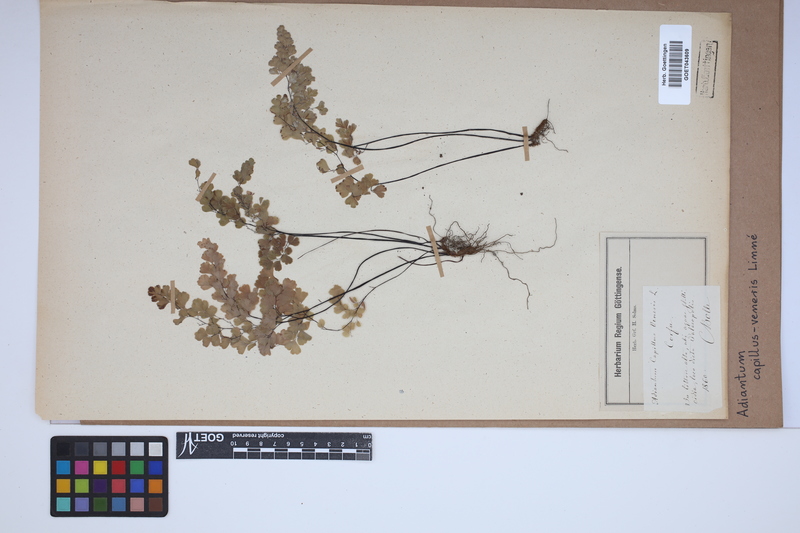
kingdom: Plantae
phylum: Tracheophyta
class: Polypodiopsida
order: Polypodiales
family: Pteridaceae
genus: Adiantum
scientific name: Adiantum capillus-veneris
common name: Maidenhair fern
